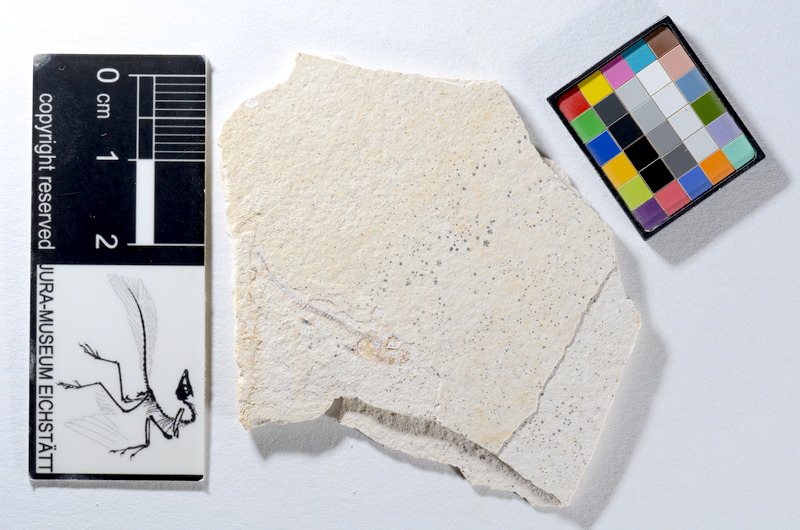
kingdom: Animalia
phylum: Chordata
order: Salmoniformes
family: Orthogonikleithridae
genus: Orthogonikleithrus
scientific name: Orthogonikleithrus hoelli
